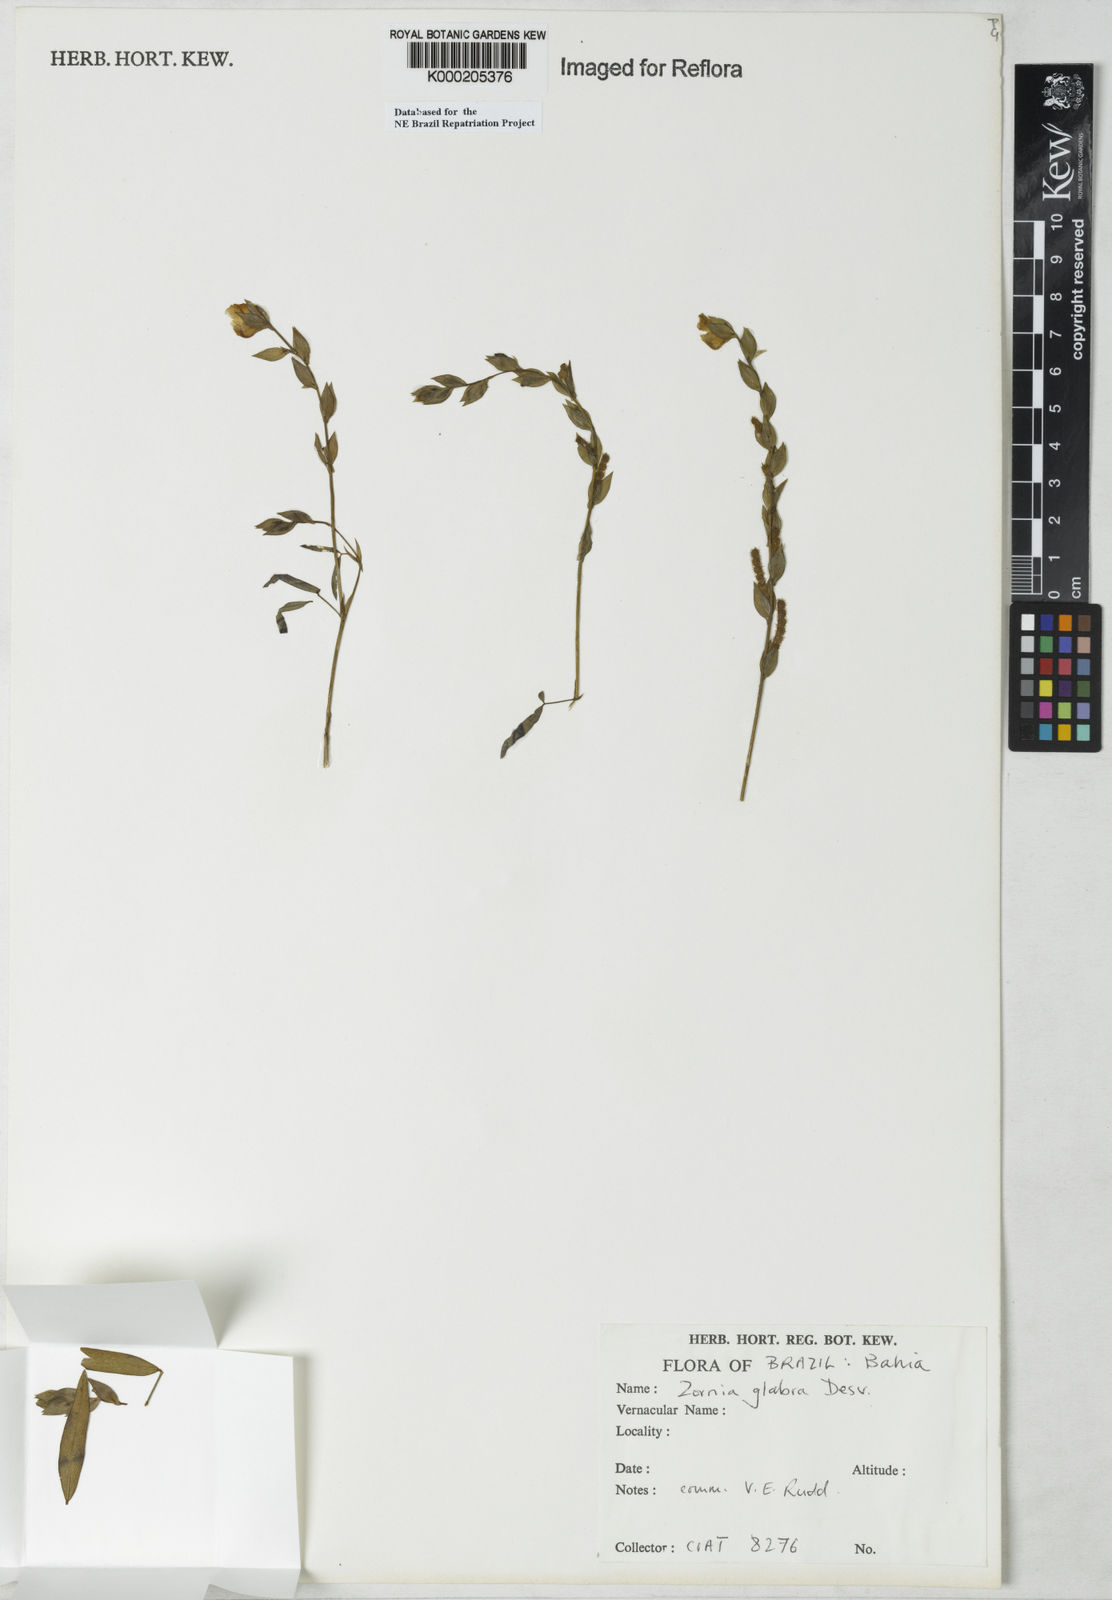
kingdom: Plantae
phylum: Tracheophyta
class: Magnoliopsida
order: Fabales
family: Fabaceae
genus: Zornia
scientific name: Zornia glabra
